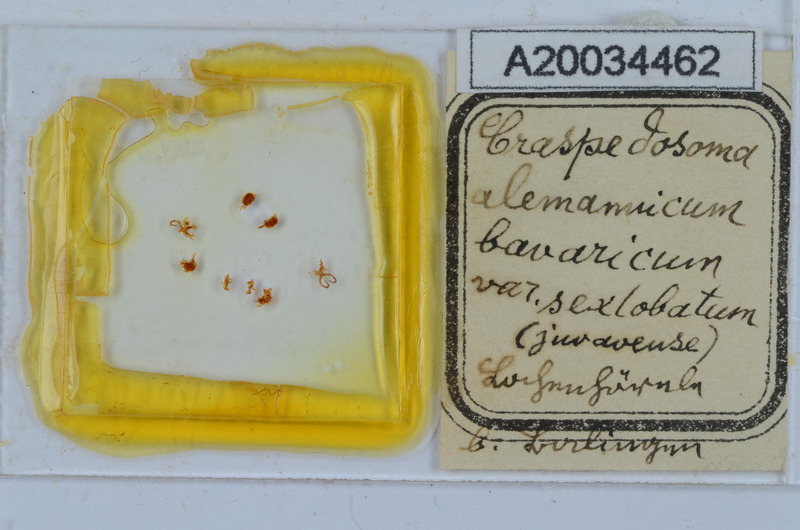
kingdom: Animalia
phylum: Arthropoda
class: Diplopoda
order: Chordeumatida
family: Craspedosomatidae
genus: Craspedosoma
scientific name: Craspedosoma rawlinsii
